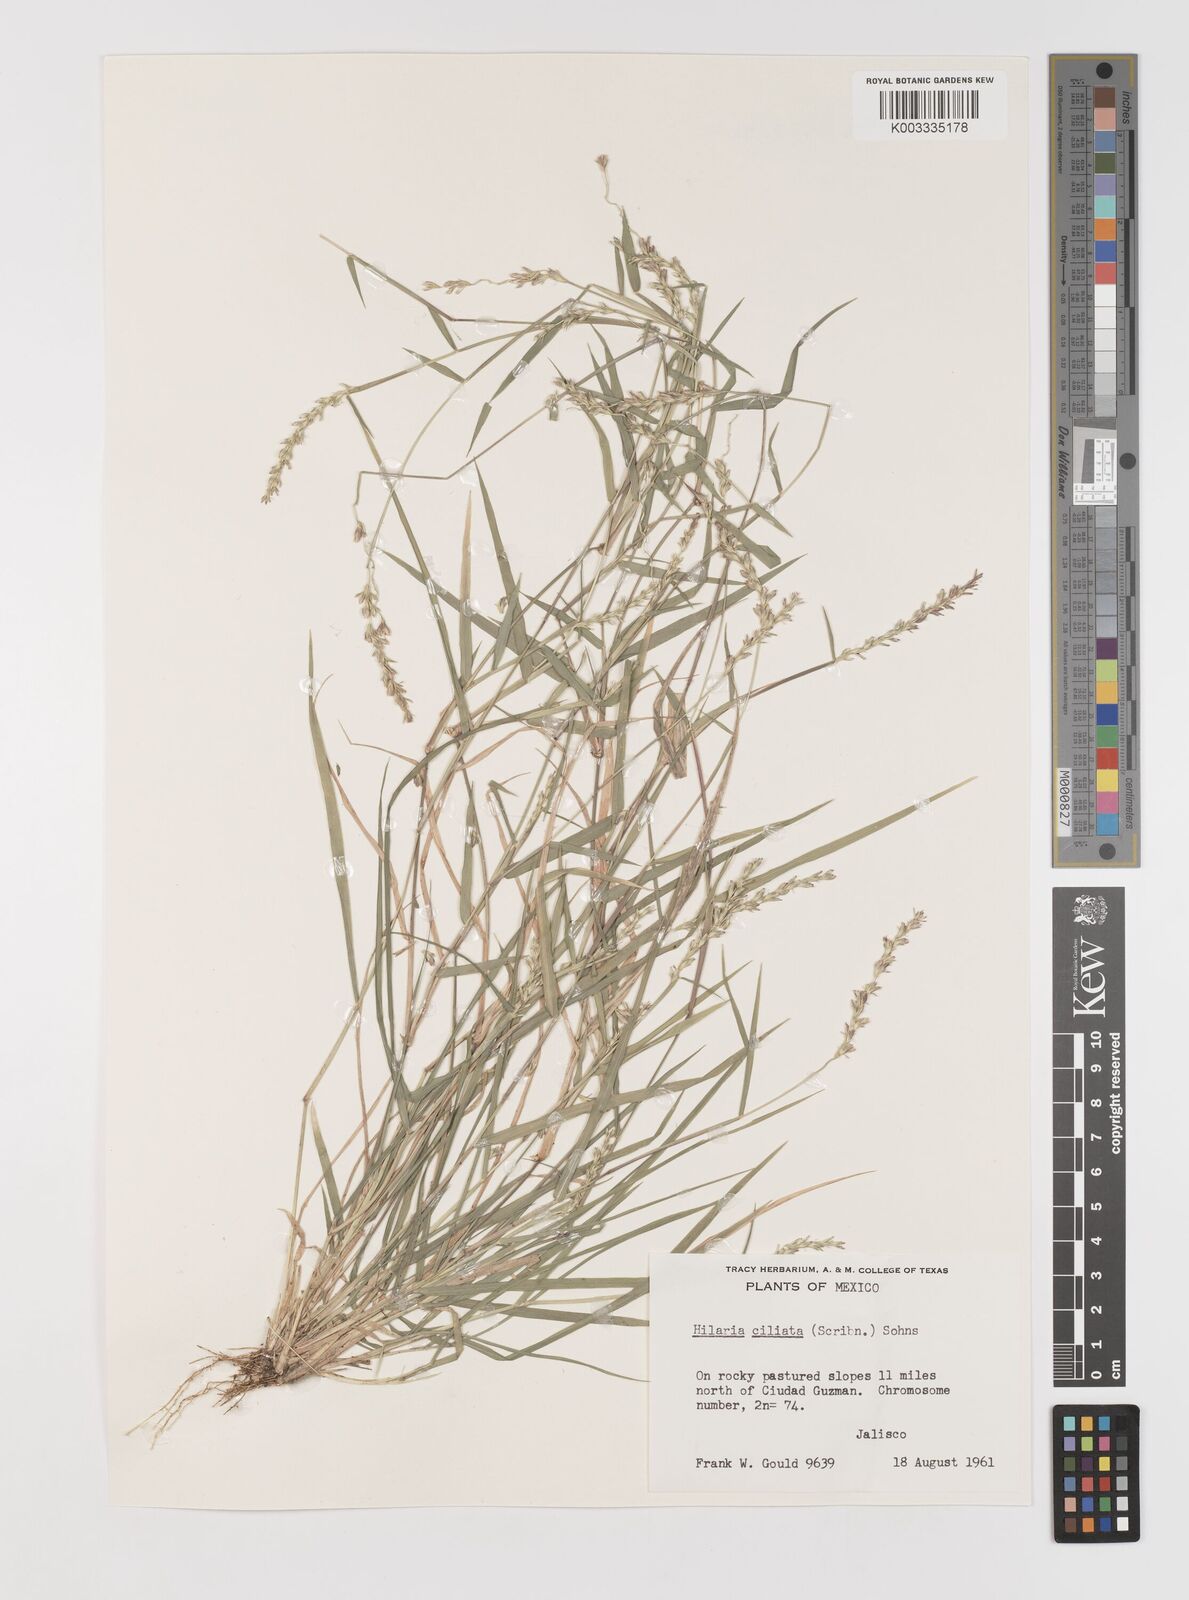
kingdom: Plantae
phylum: Tracheophyta
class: Liliopsida
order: Poales
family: Poaceae
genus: Hilaria
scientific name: Hilaria ciliata
